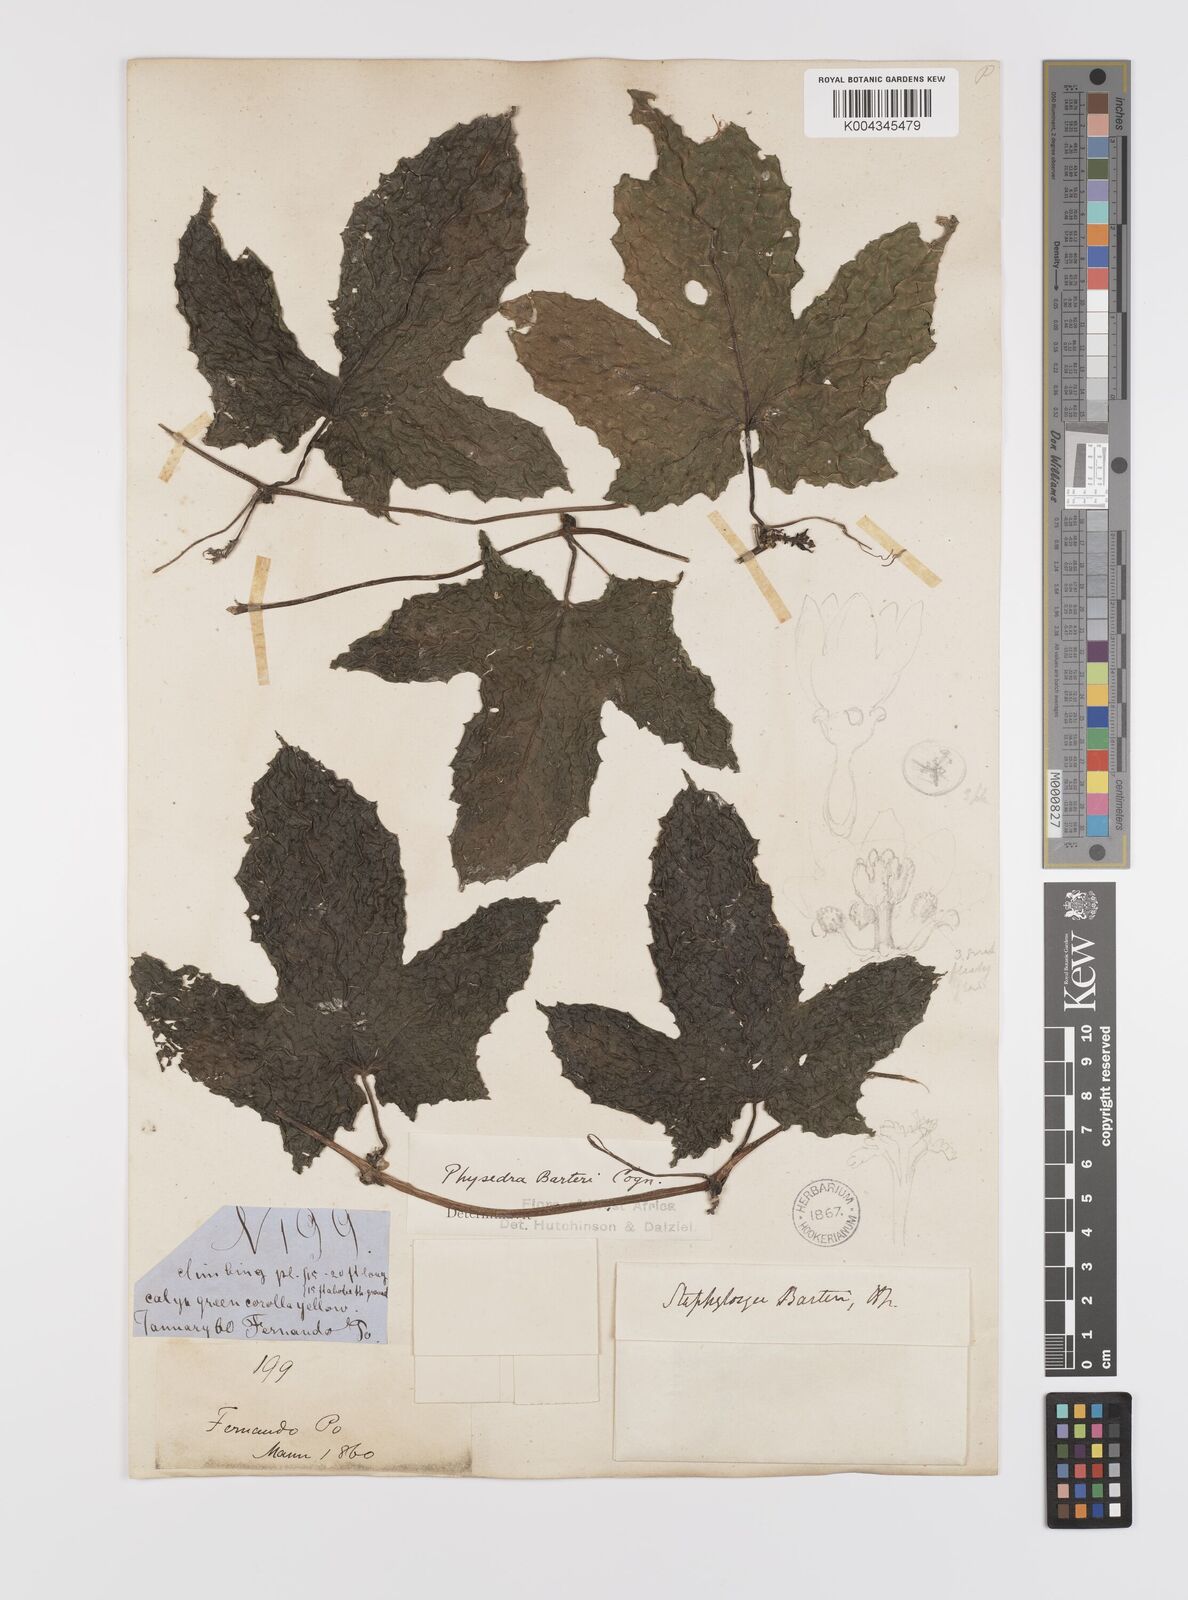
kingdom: Plantae
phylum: Tracheophyta
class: Magnoliopsida
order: Cucurbitales
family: Cucurbitaceae
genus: Coccinia
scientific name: Coccinia barteri
